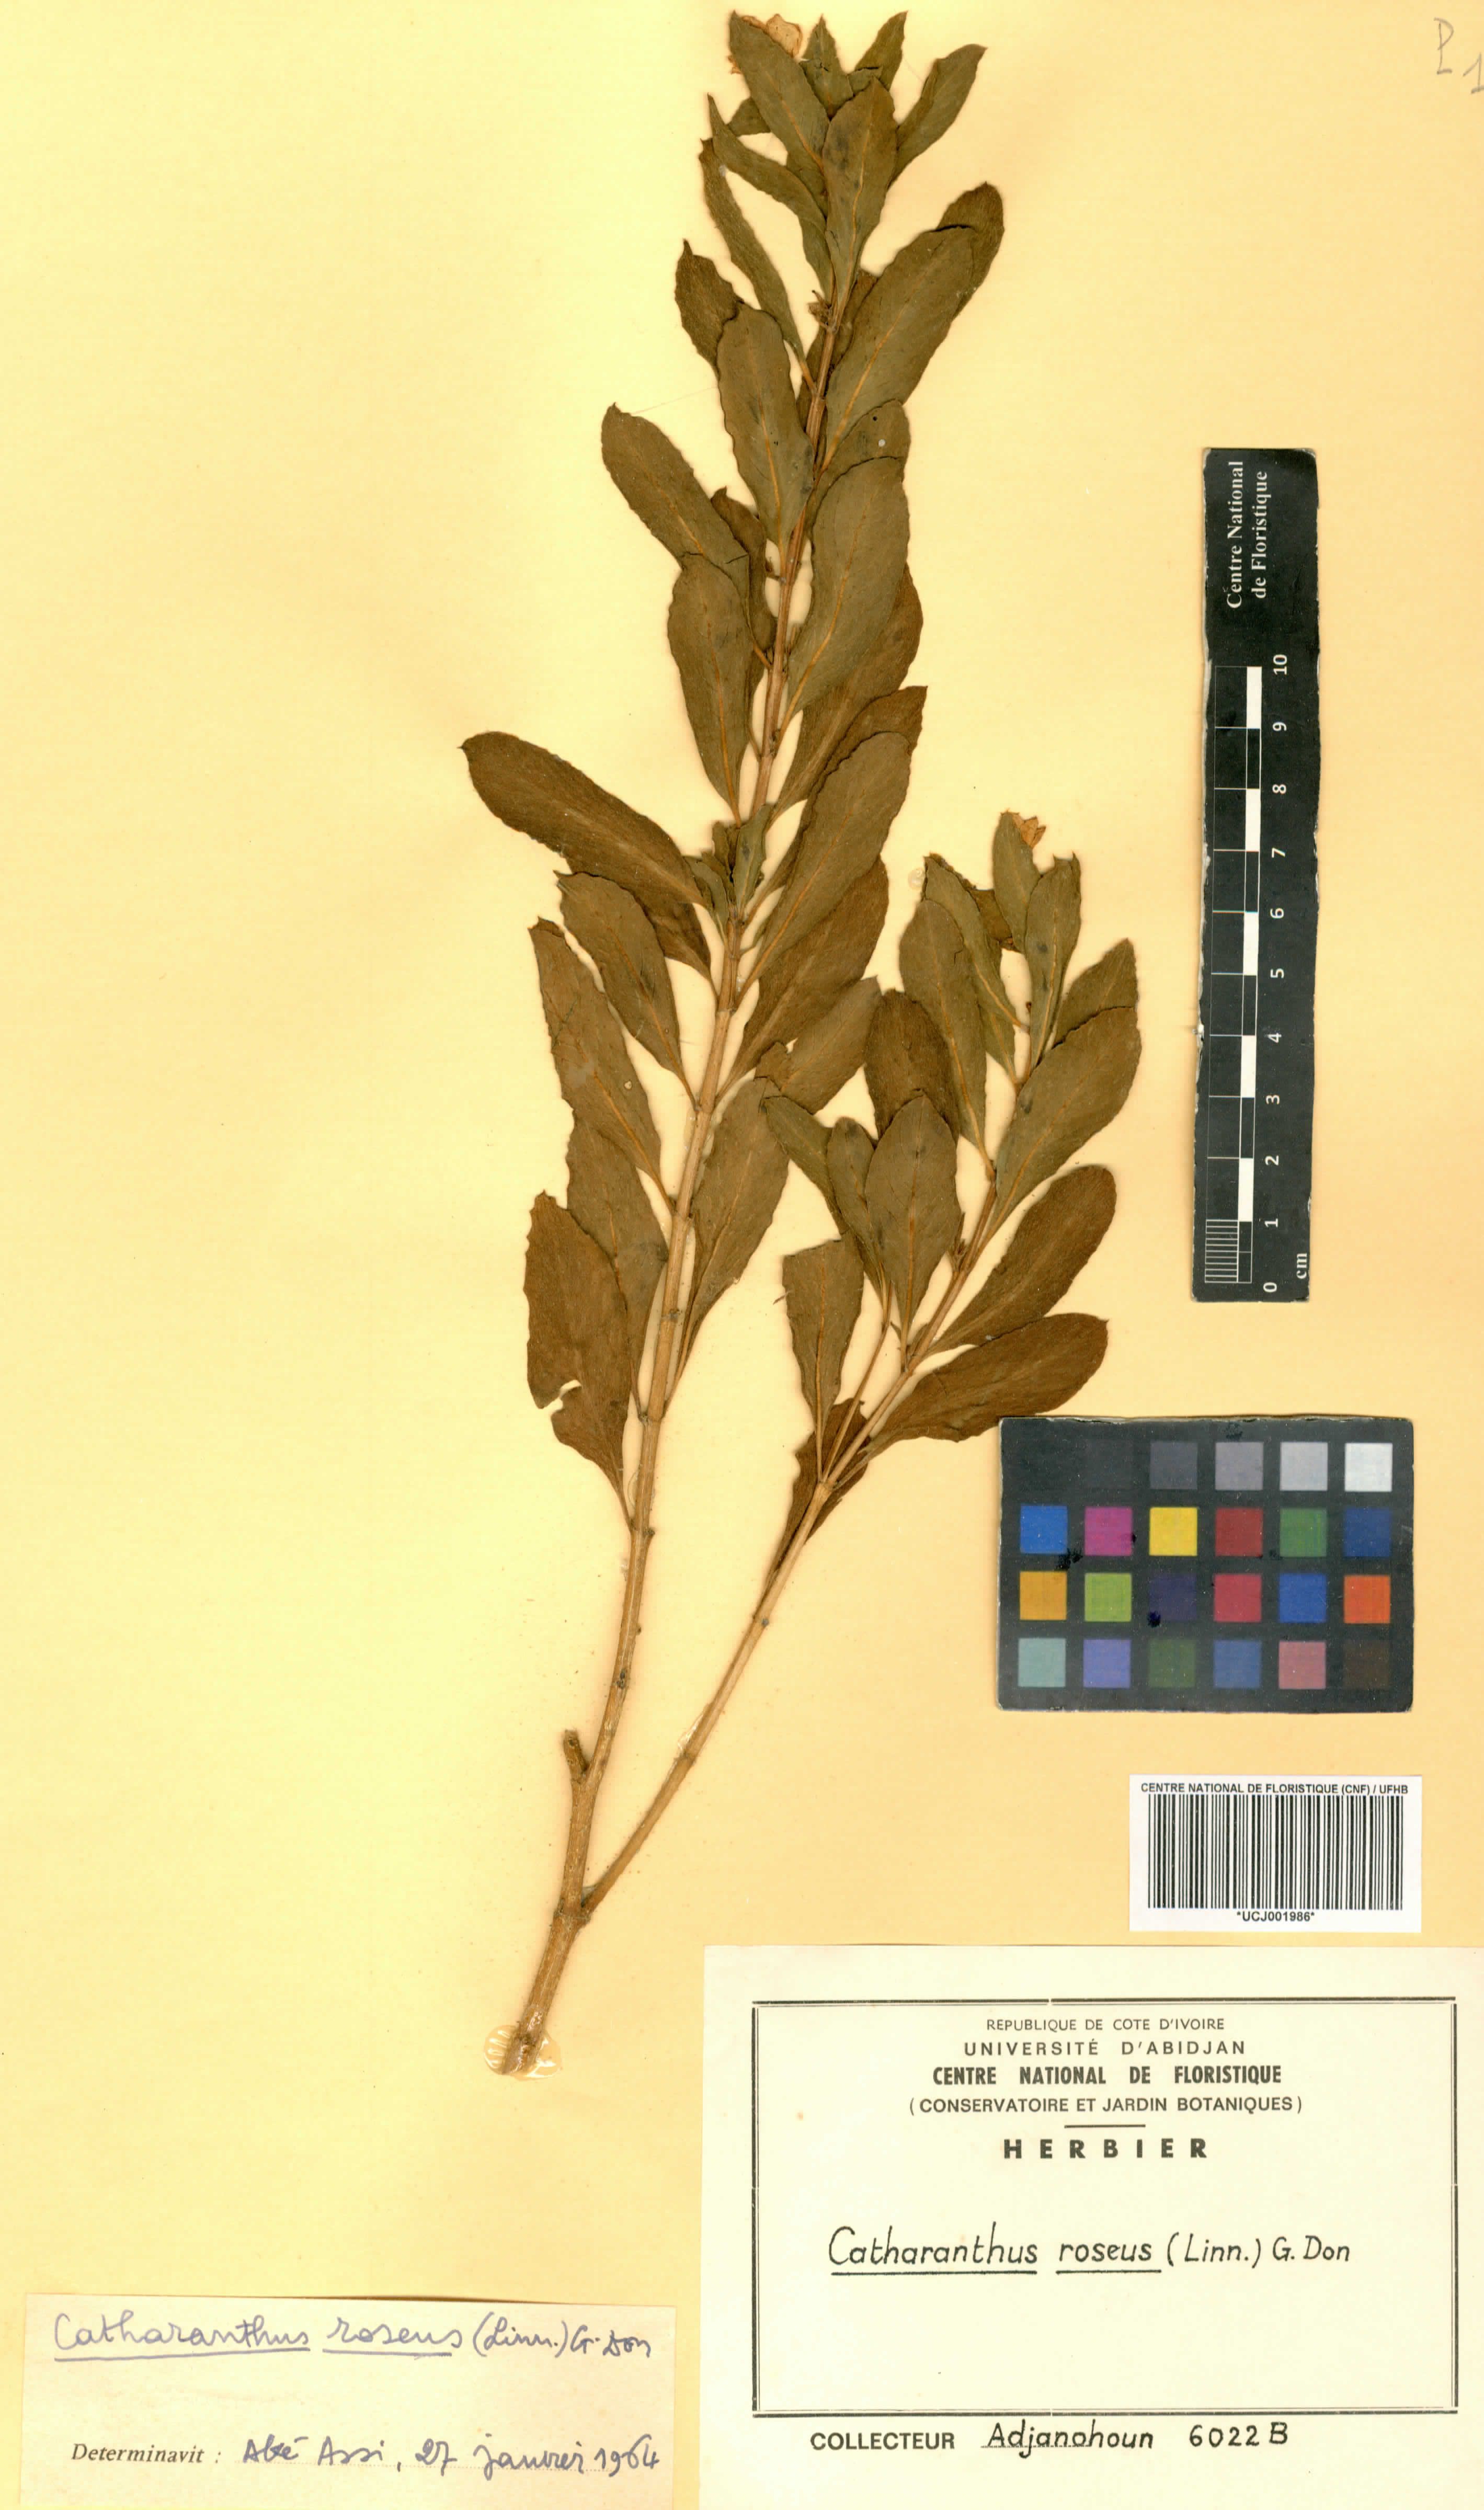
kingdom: Plantae
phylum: Tracheophyta
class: Magnoliopsida
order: Gentianales
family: Apocynaceae
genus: Catharanthus
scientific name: Catharanthus roseus
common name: Madagascar periwinkle
